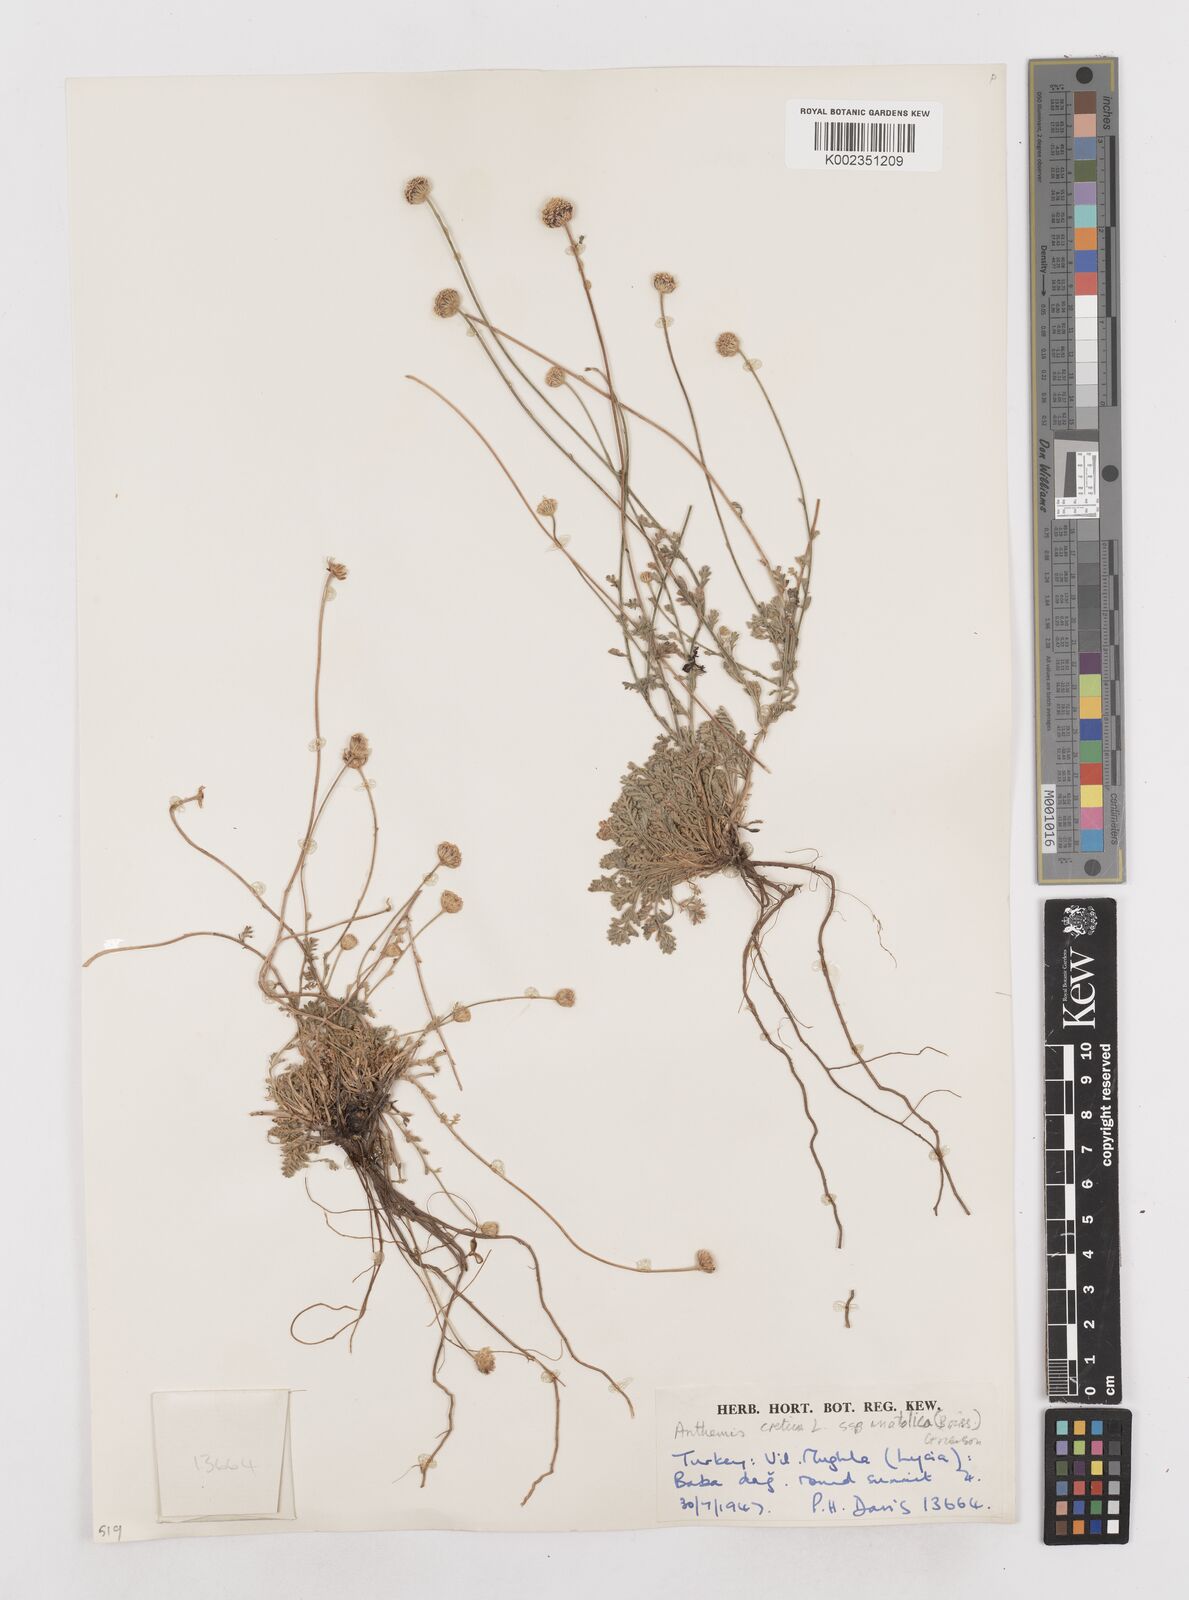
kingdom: Plantae
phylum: Tracheophyta
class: Magnoliopsida
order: Asterales
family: Asteraceae
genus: Anthemis
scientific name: Anthemis cretica
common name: Mountain dog-daisy
